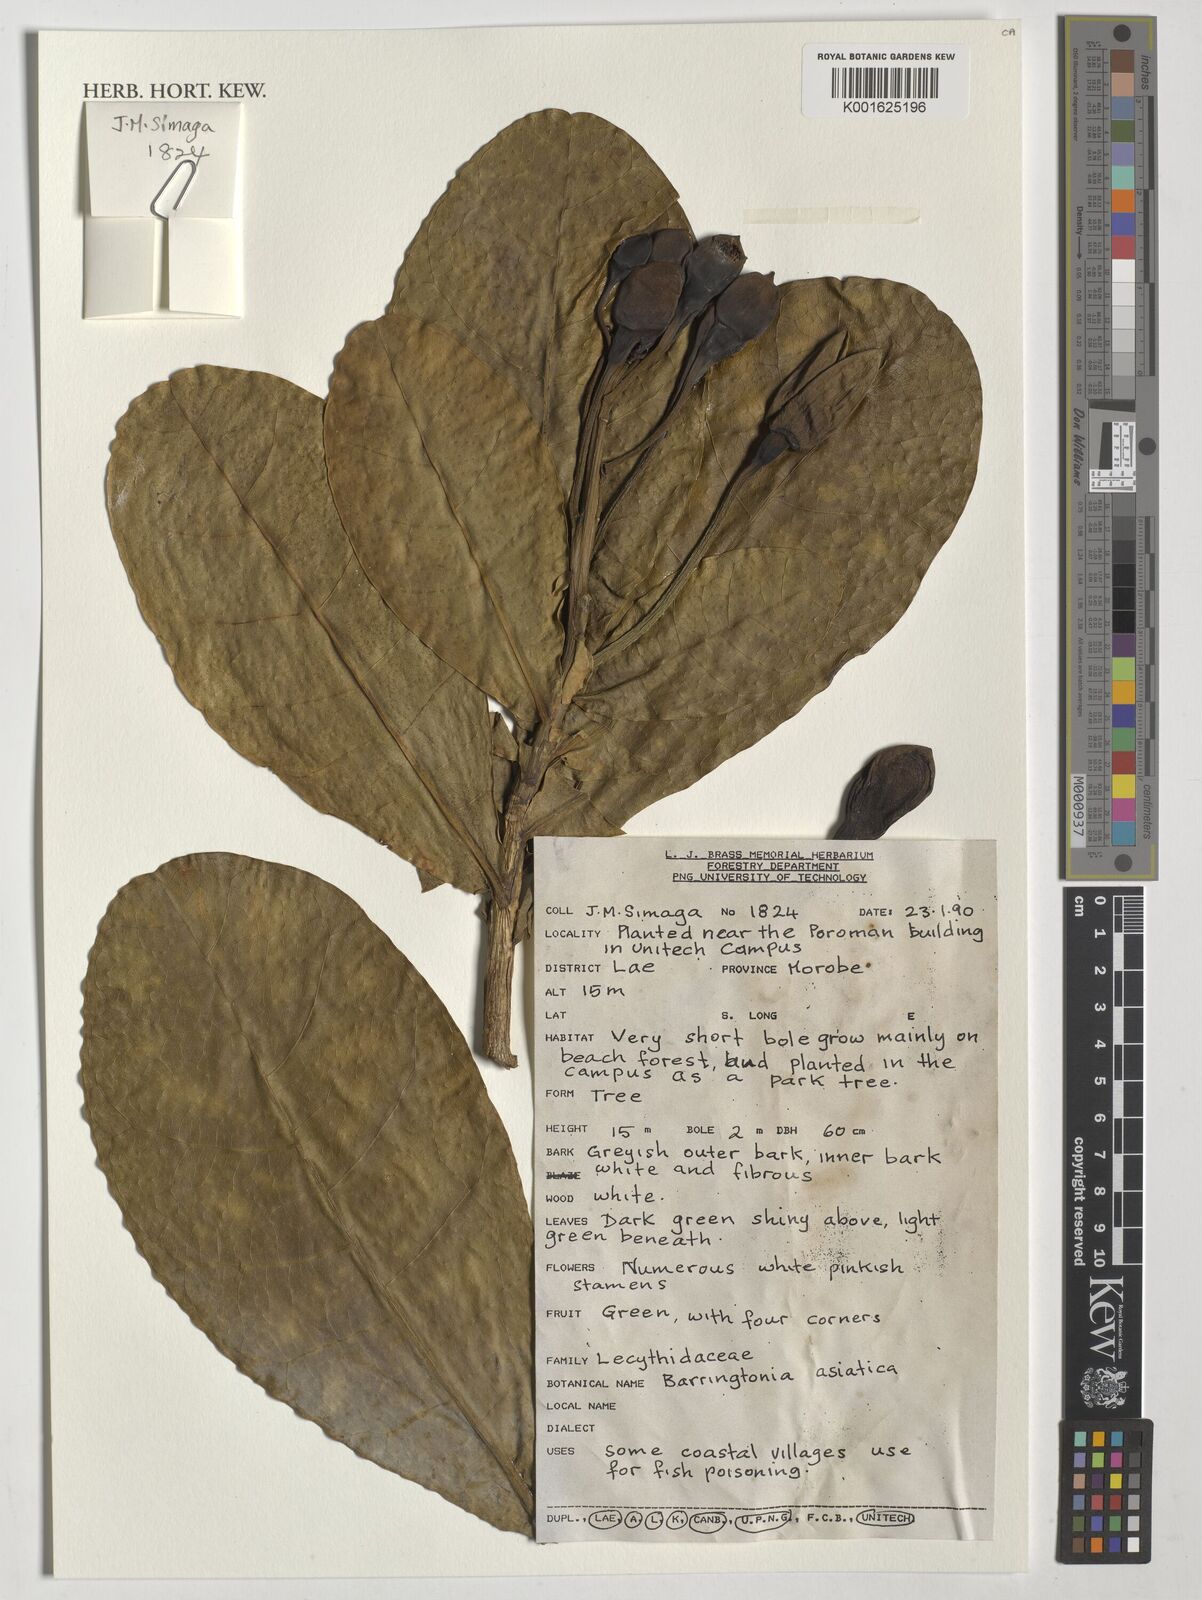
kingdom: Plantae
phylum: Tracheophyta
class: Magnoliopsida
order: Ericales
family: Lecythidaceae
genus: Barringtonia
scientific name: Barringtonia asiatica
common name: Mango-pine
